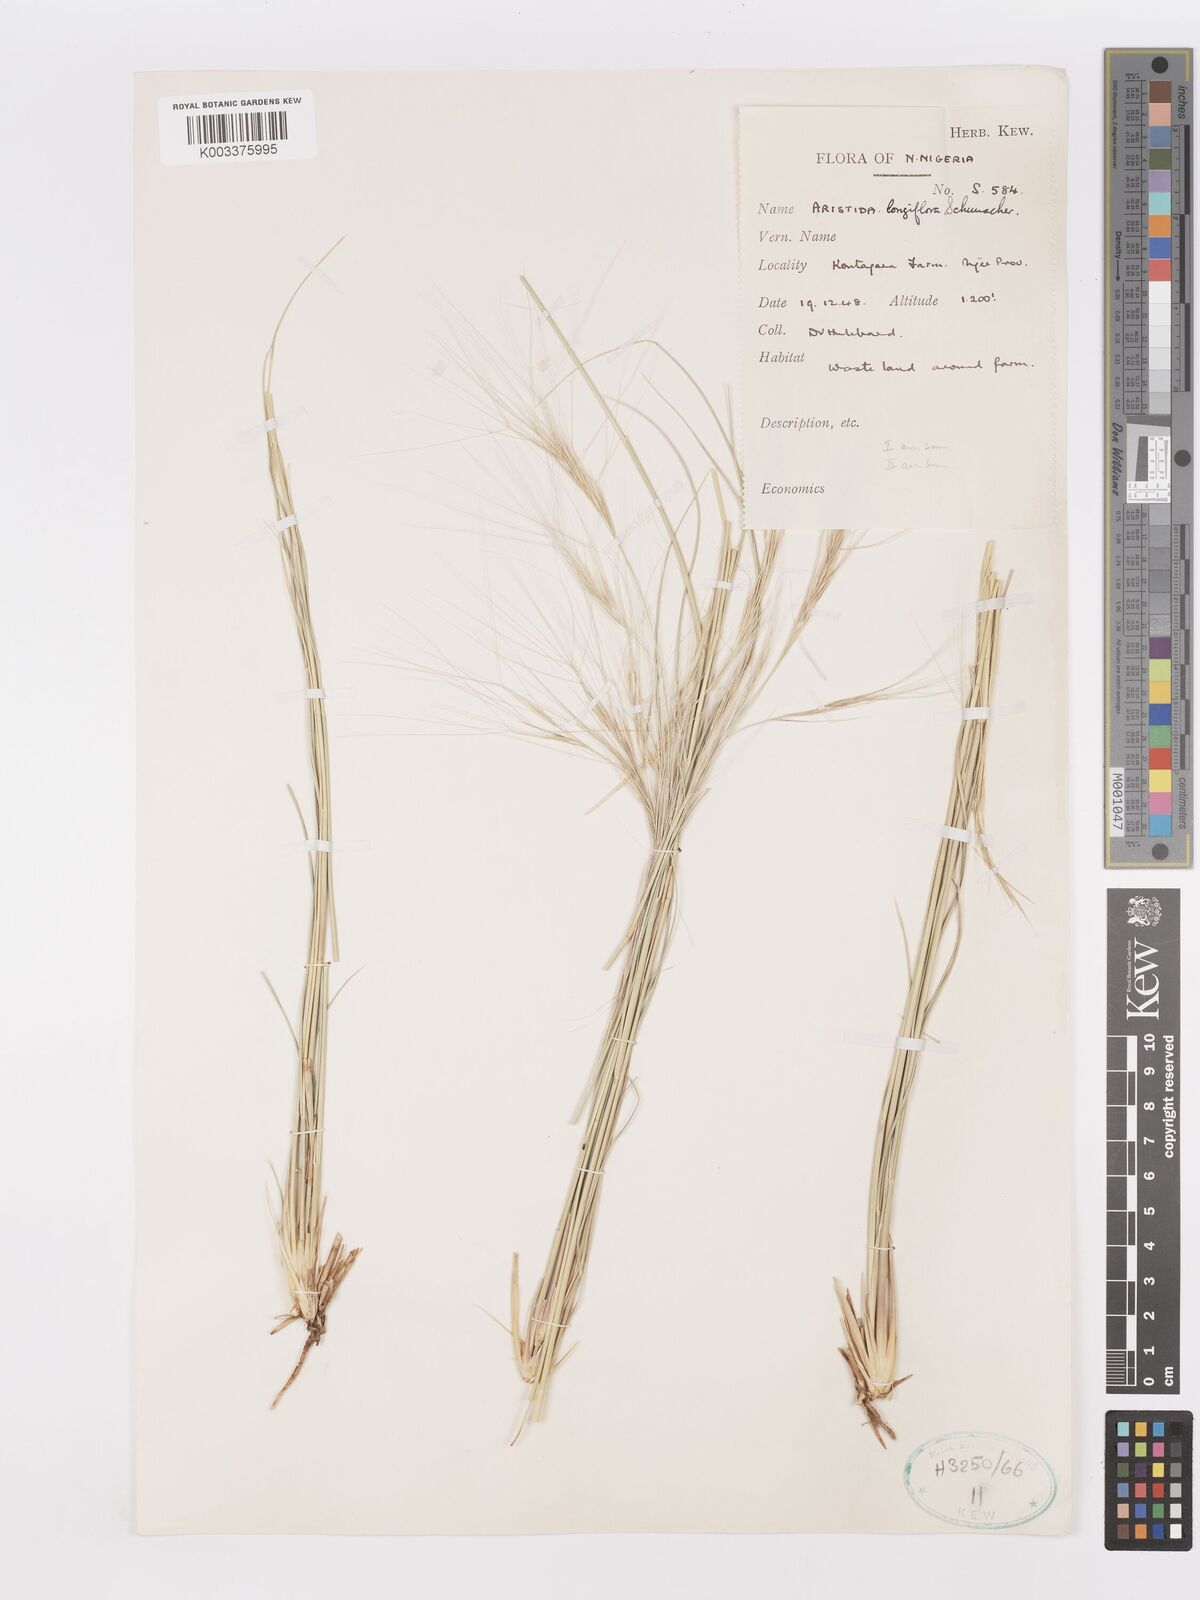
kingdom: Plantae
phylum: Tracheophyta
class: Liliopsida
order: Poales
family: Poaceae
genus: Aristida
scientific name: Aristida sieberiana
